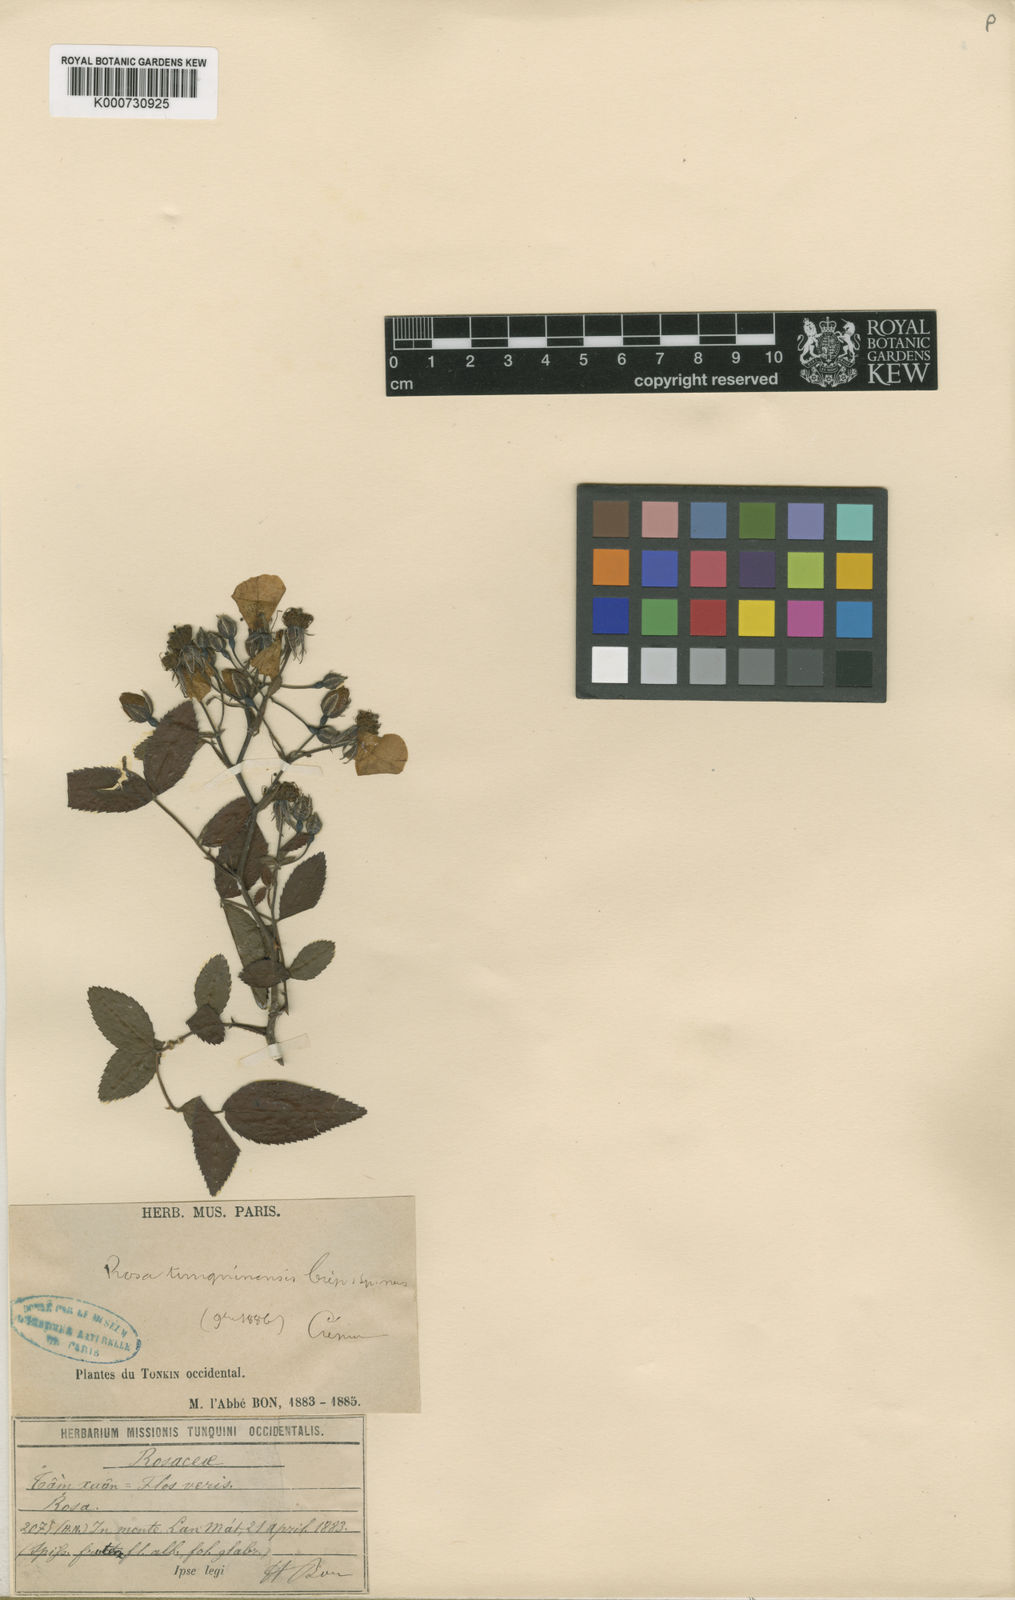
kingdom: Plantae
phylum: Tracheophyta
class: Magnoliopsida
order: Rosales
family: Rosaceae
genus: Rosa
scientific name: Rosa
